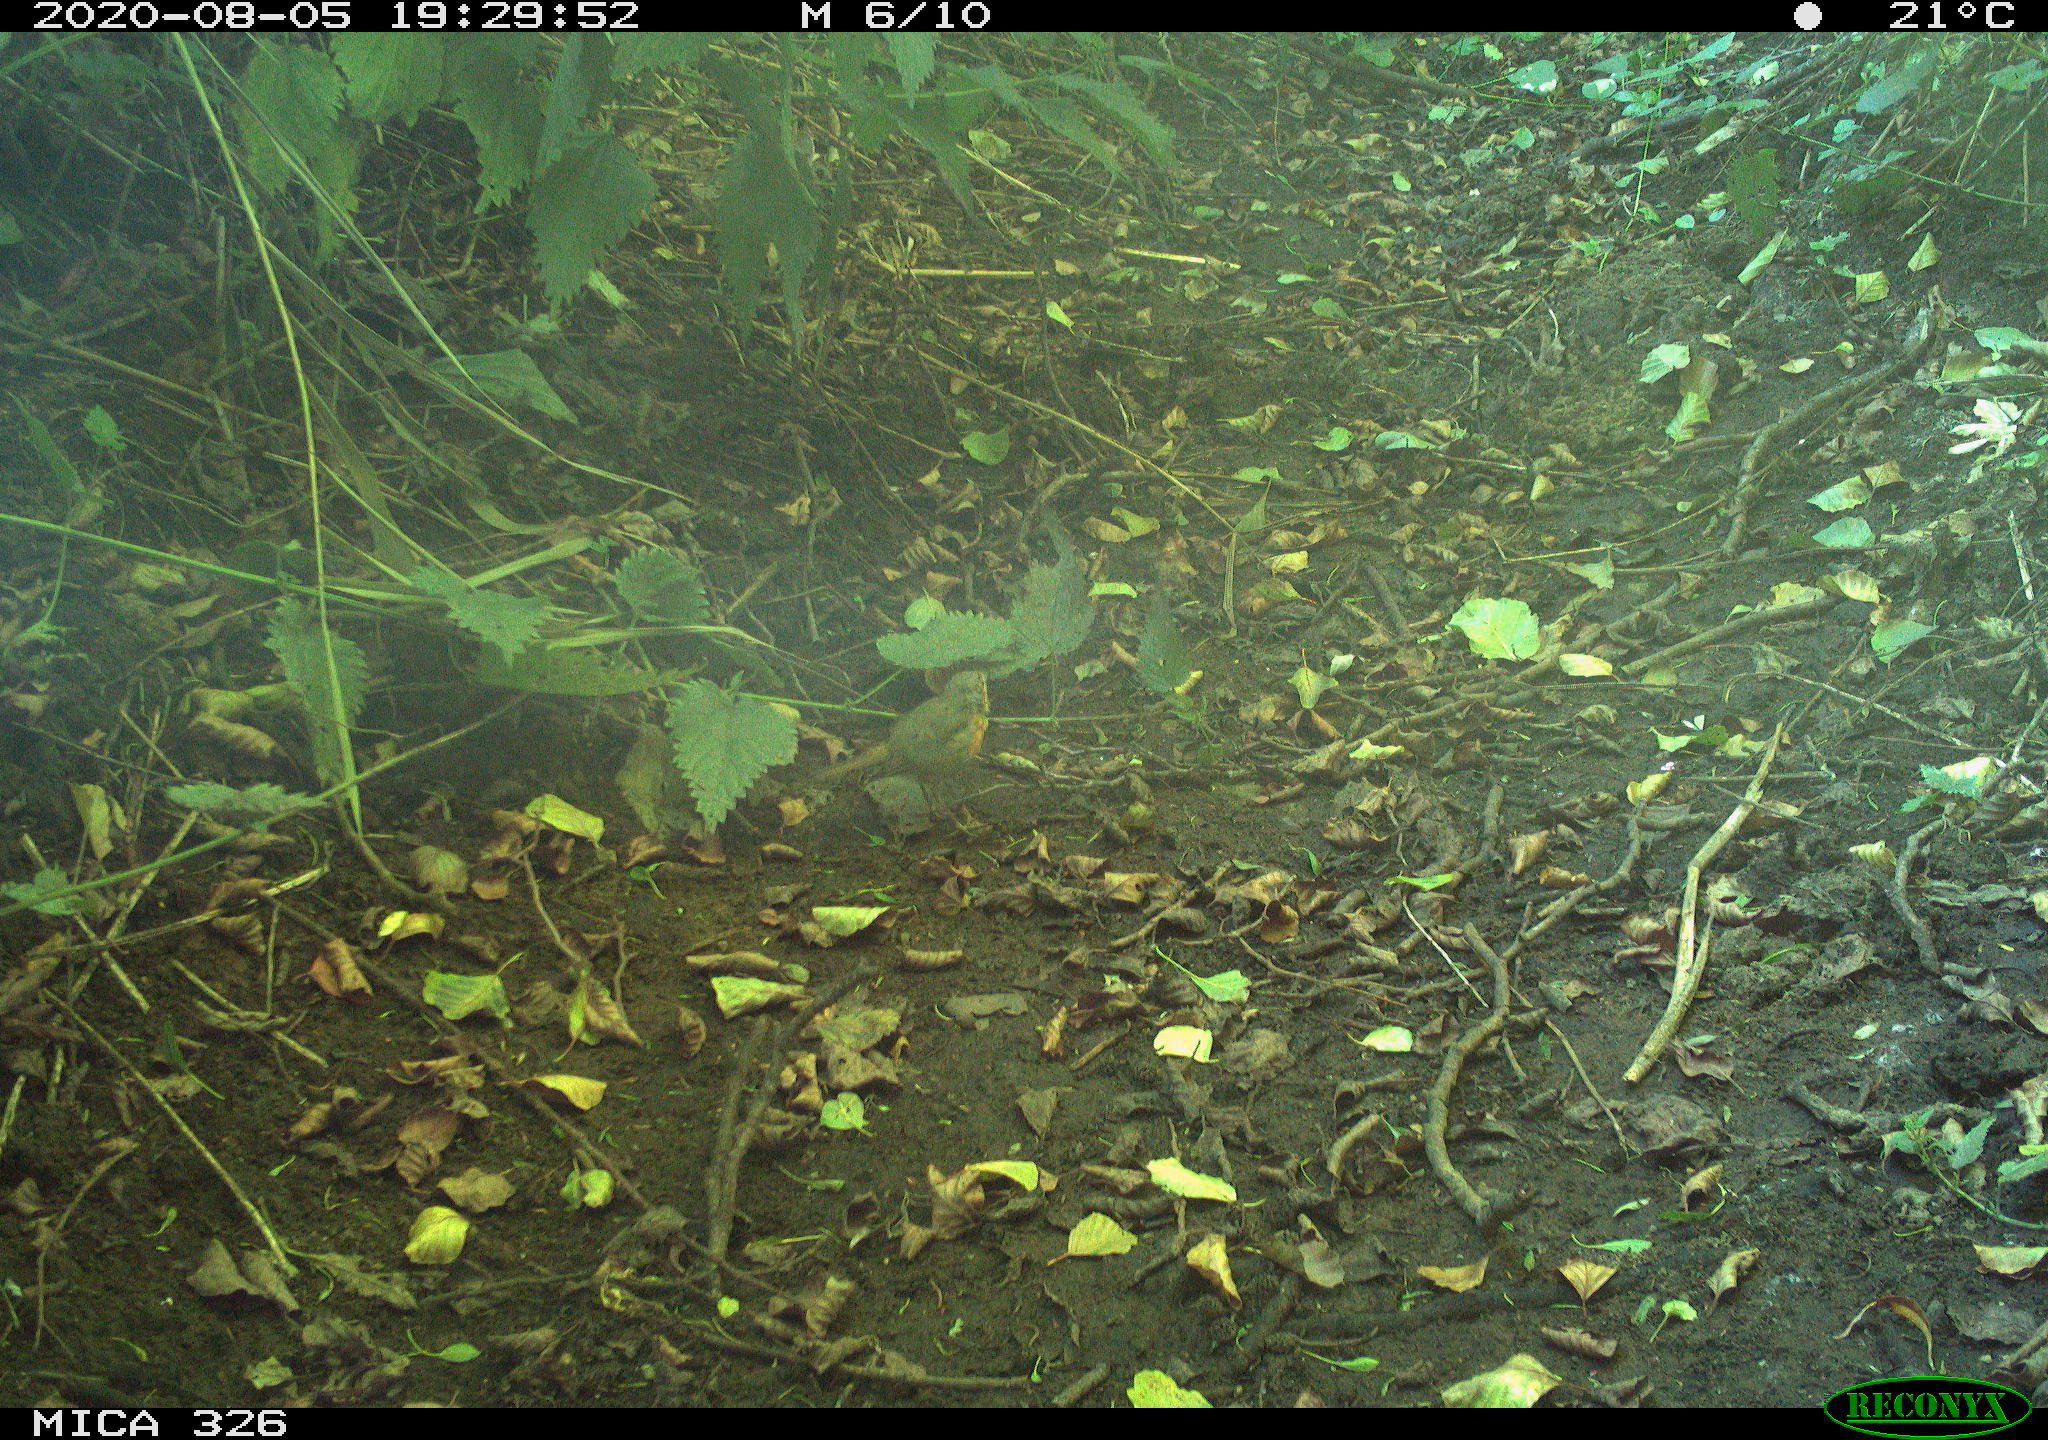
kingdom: Animalia
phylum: Chordata
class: Aves
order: Passeriformes
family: Muscicapidae
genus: Erithacus
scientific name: Erithacus rubecula
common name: European robin
